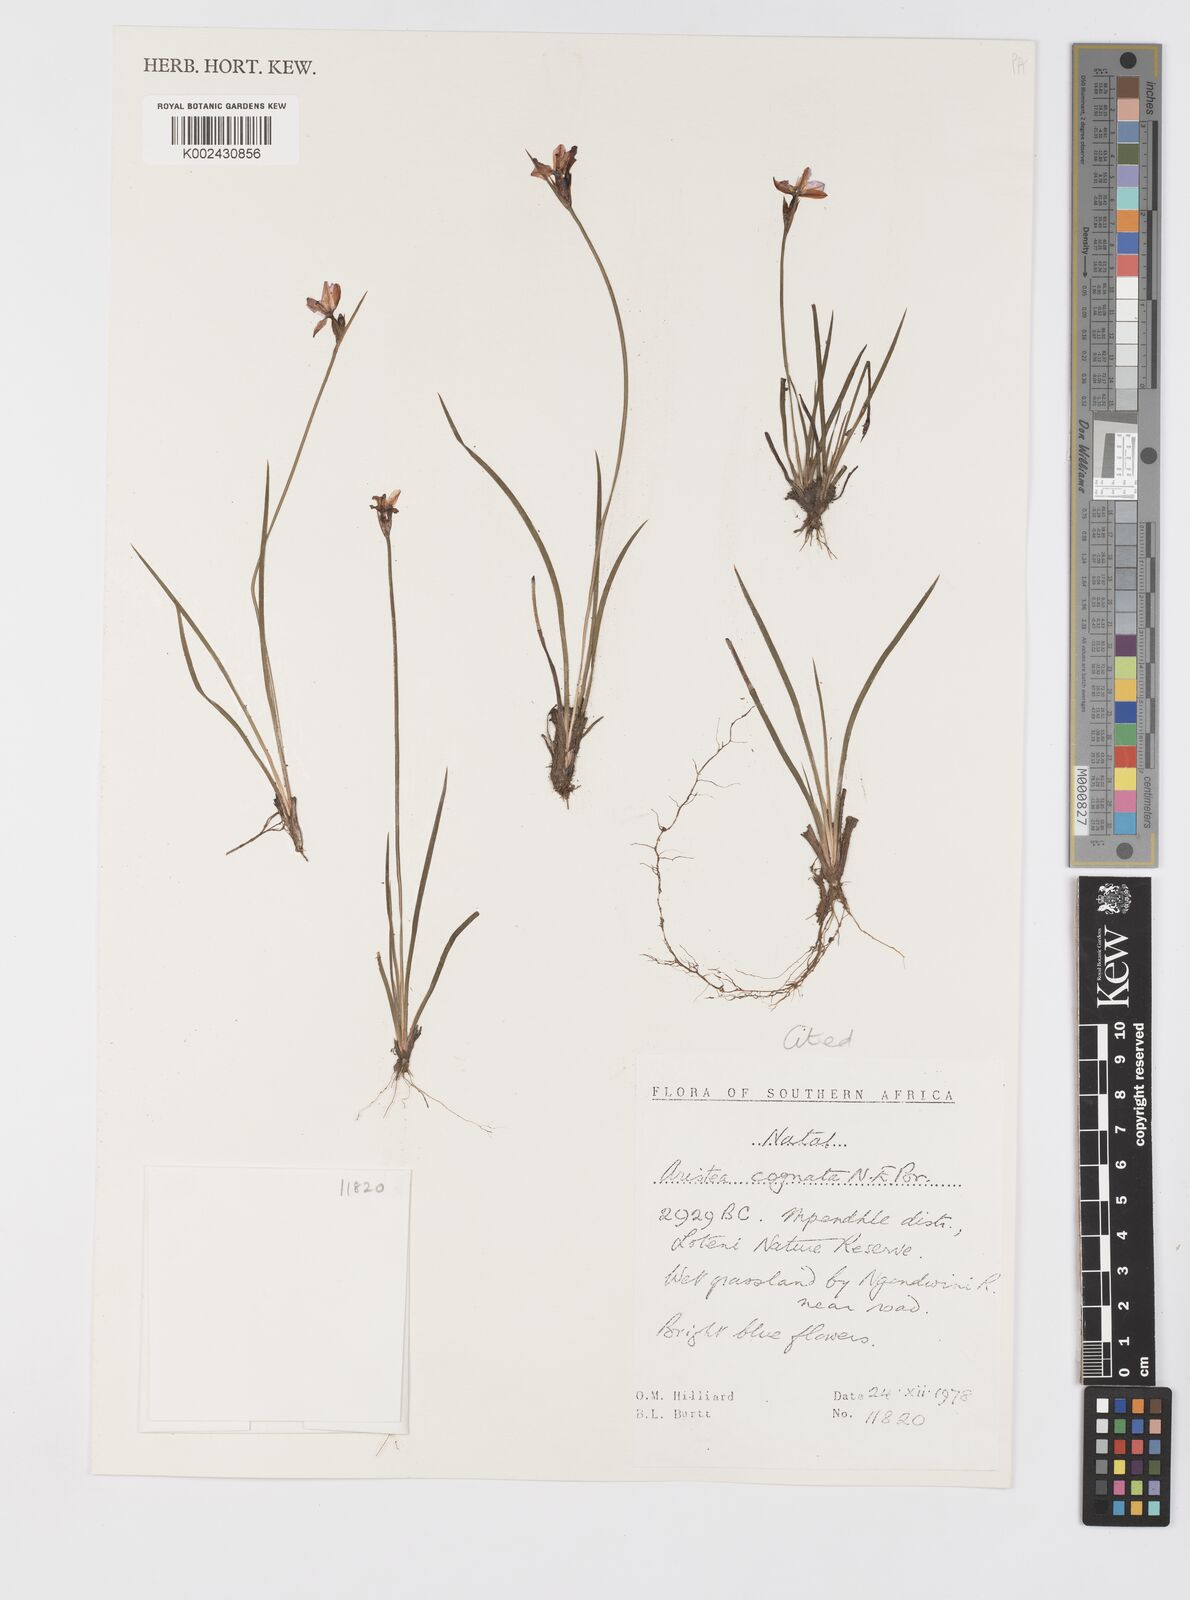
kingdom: Plantae
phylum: Tracheophyta
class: Liliopsida
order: Asparagales
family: Iridaceae
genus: Aristea
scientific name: Aristea abyssinica
